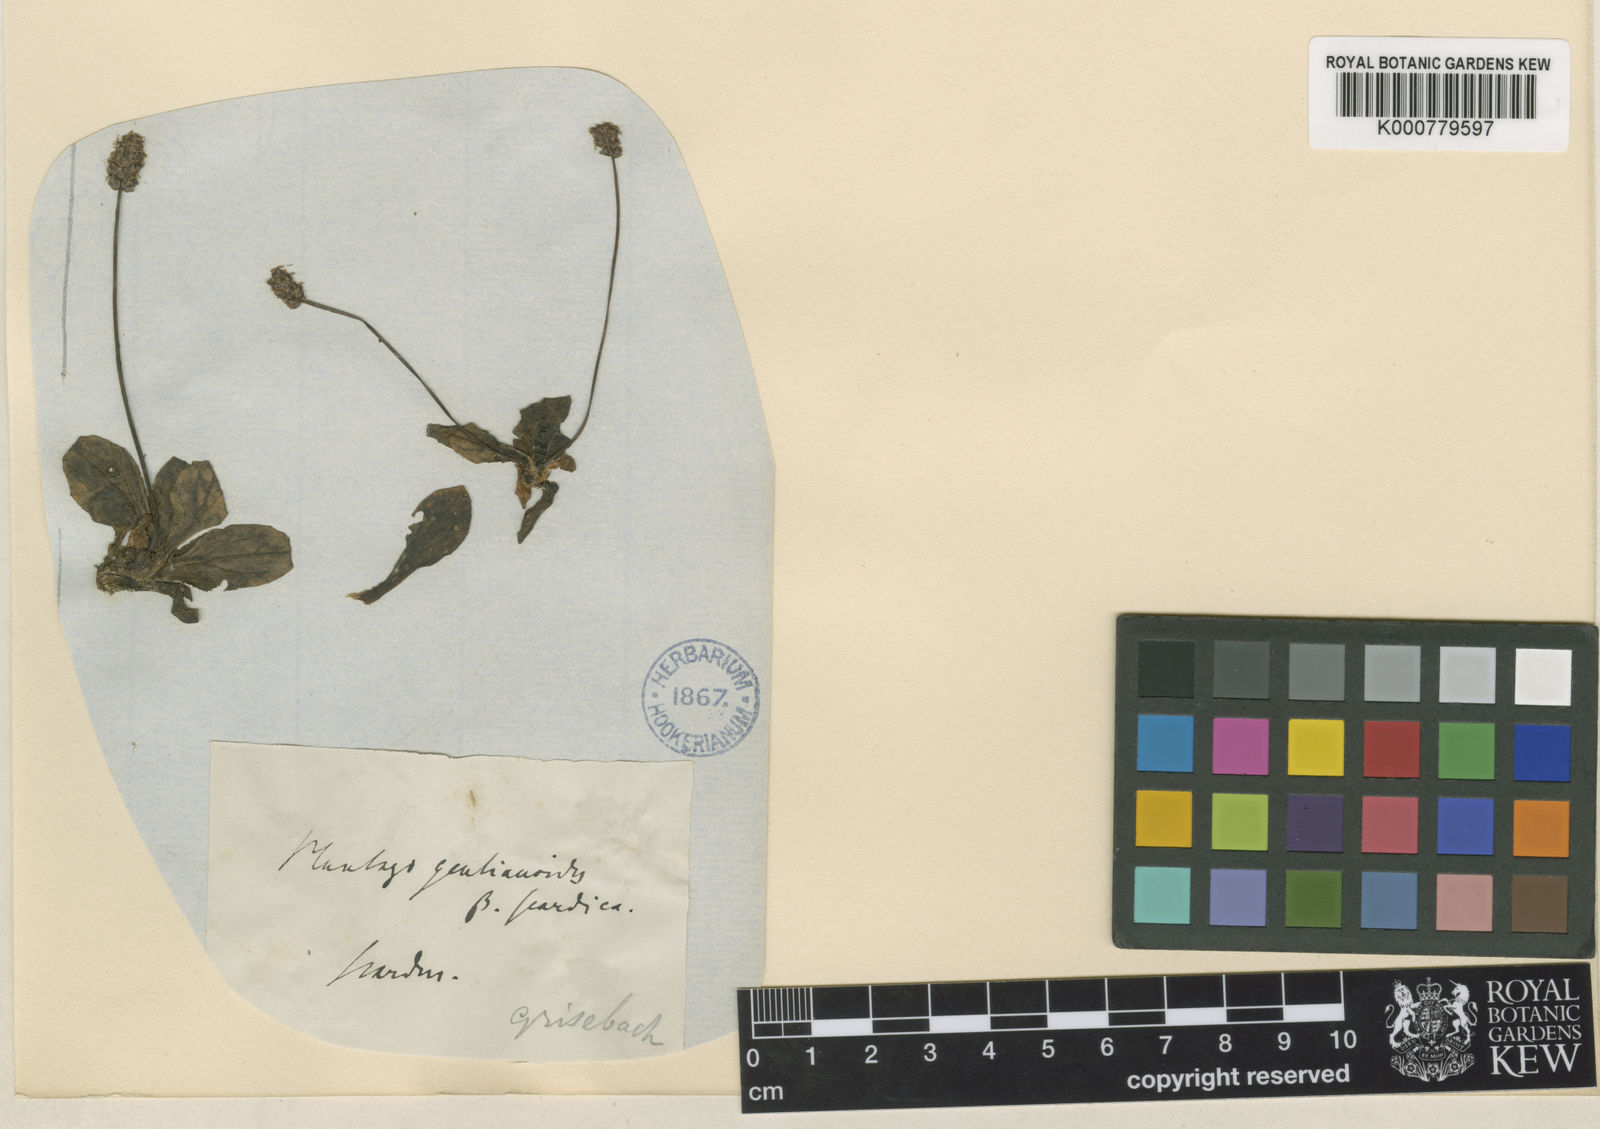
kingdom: Plantae
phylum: Tracheophyta
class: Magnoliopsida
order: Lamiales
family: Plantaginaceae
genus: Plantago
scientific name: Plantago gentianoides
